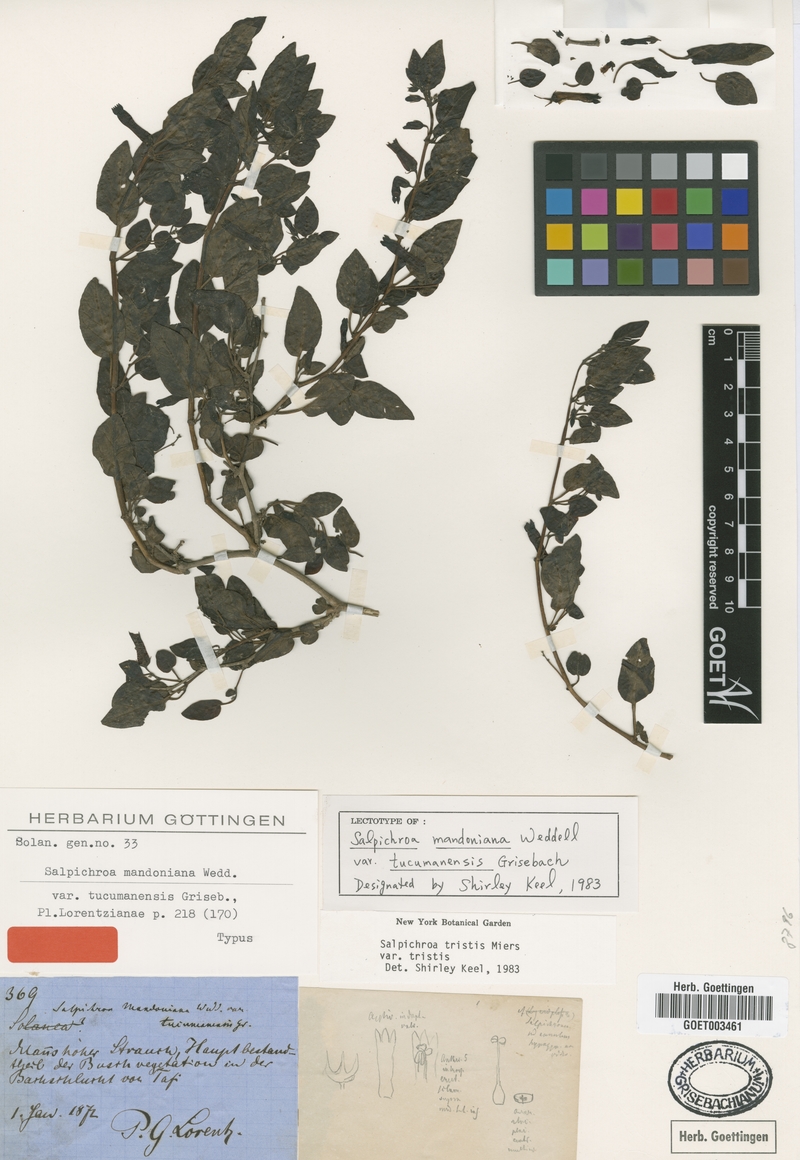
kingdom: Plantae
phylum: Tracheophyta
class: Magnoliopsida
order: Solanales
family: Solanaceae
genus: Salpichroa
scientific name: Salpichroa tristis
